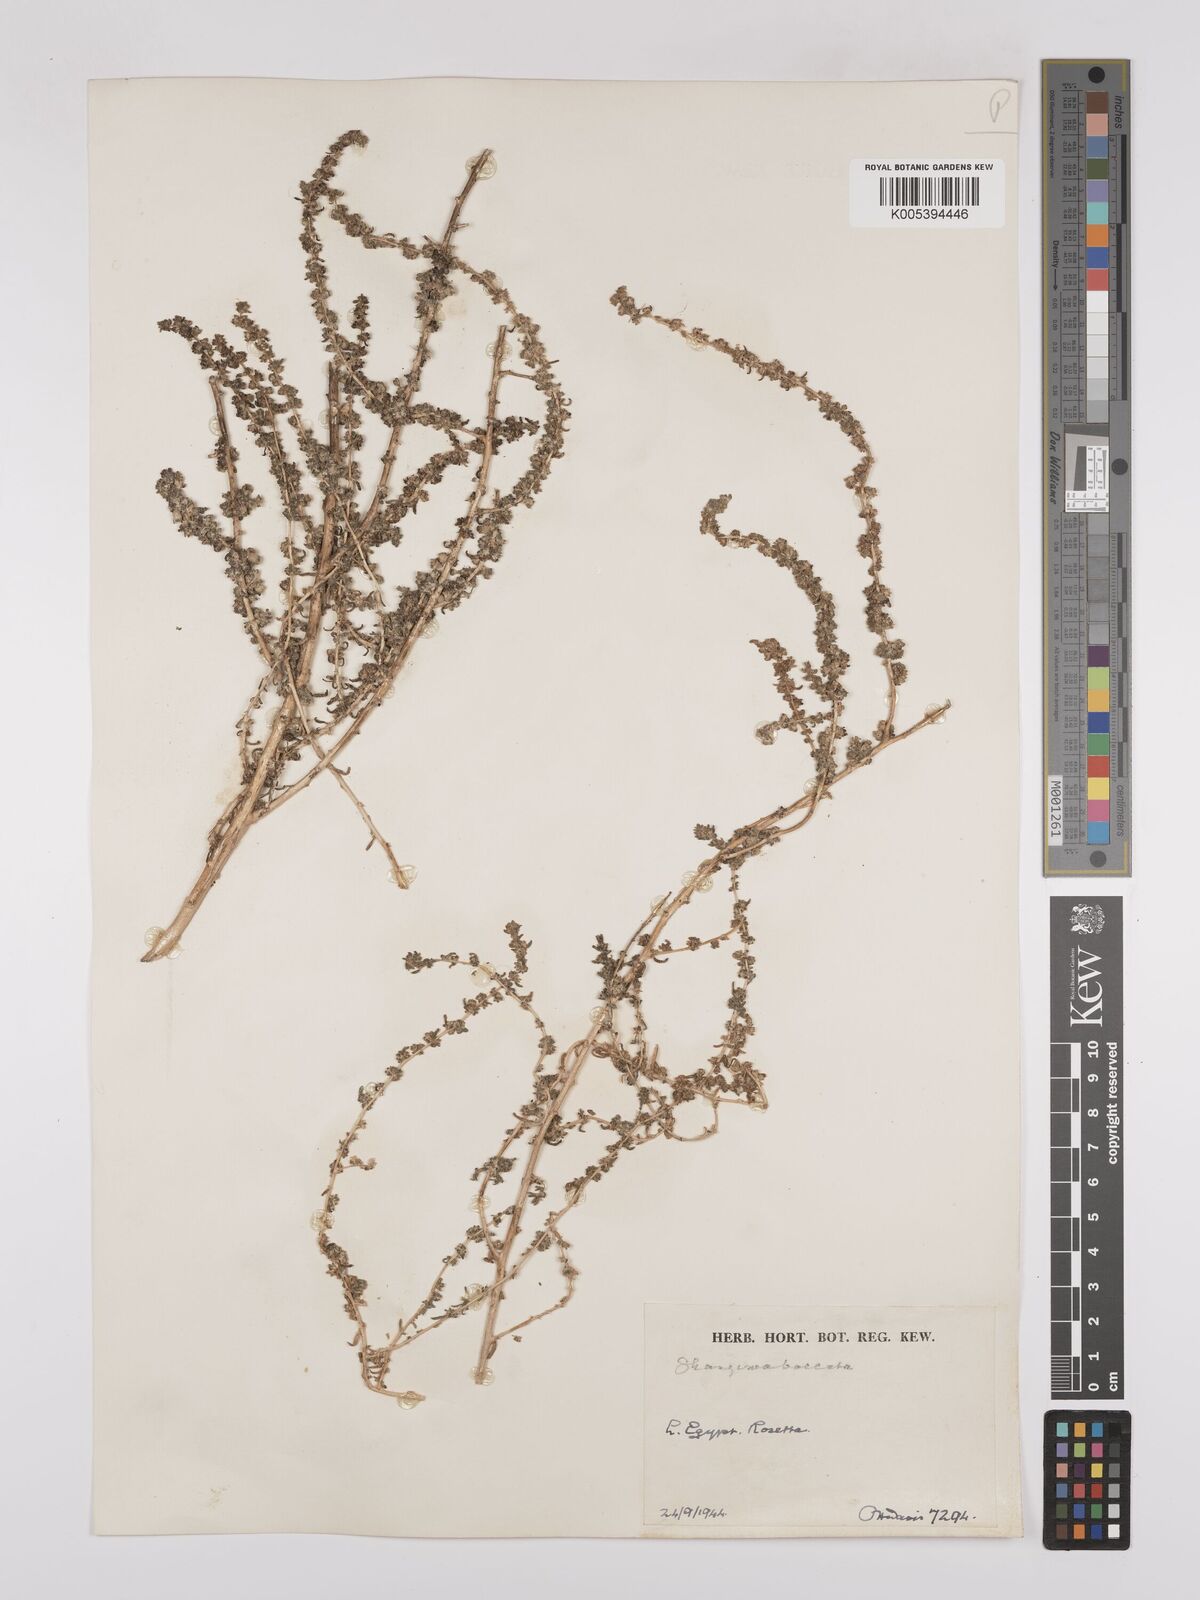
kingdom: Plantae
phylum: Tracheophyta
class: Magnoliopsida
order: Caryophyllales
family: Amaranthaceae
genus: Suaeda
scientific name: Suaeda aegyptiaca
